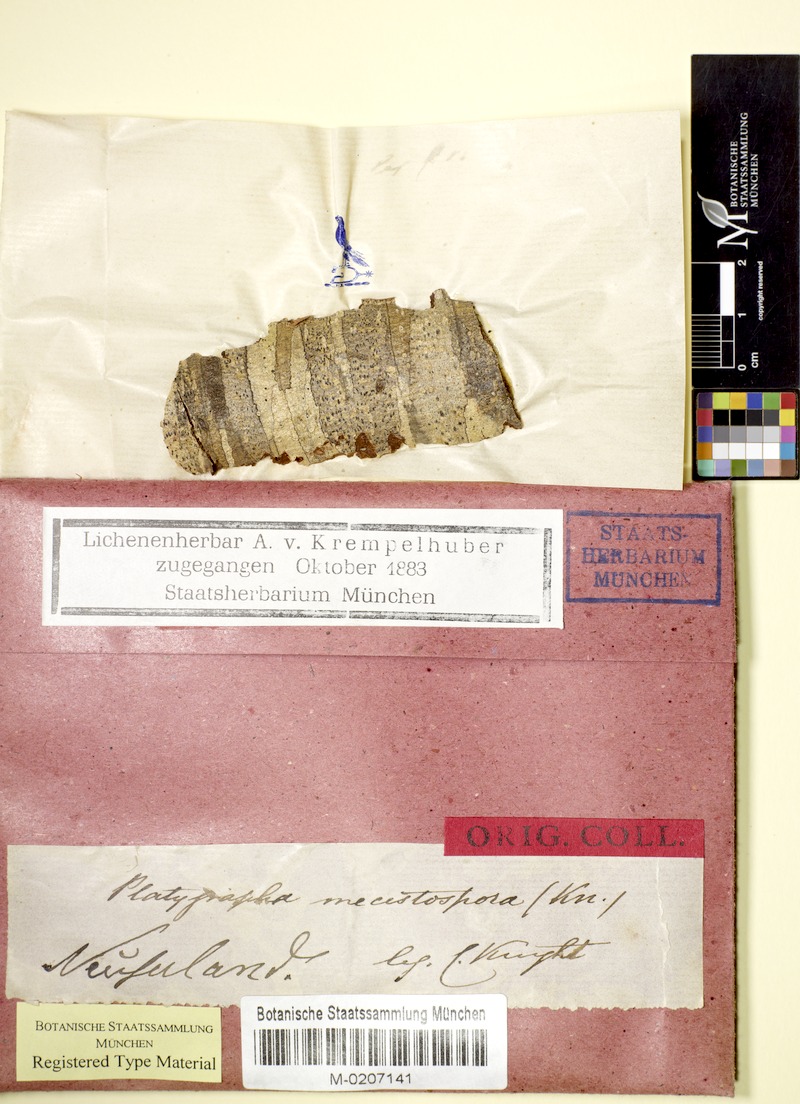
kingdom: Fungi
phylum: Ascomycota
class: Arthoniomycetes
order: Arthoniales
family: Roccellaceae
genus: Bactrospora
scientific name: Bactrospora pleistophragmoides
